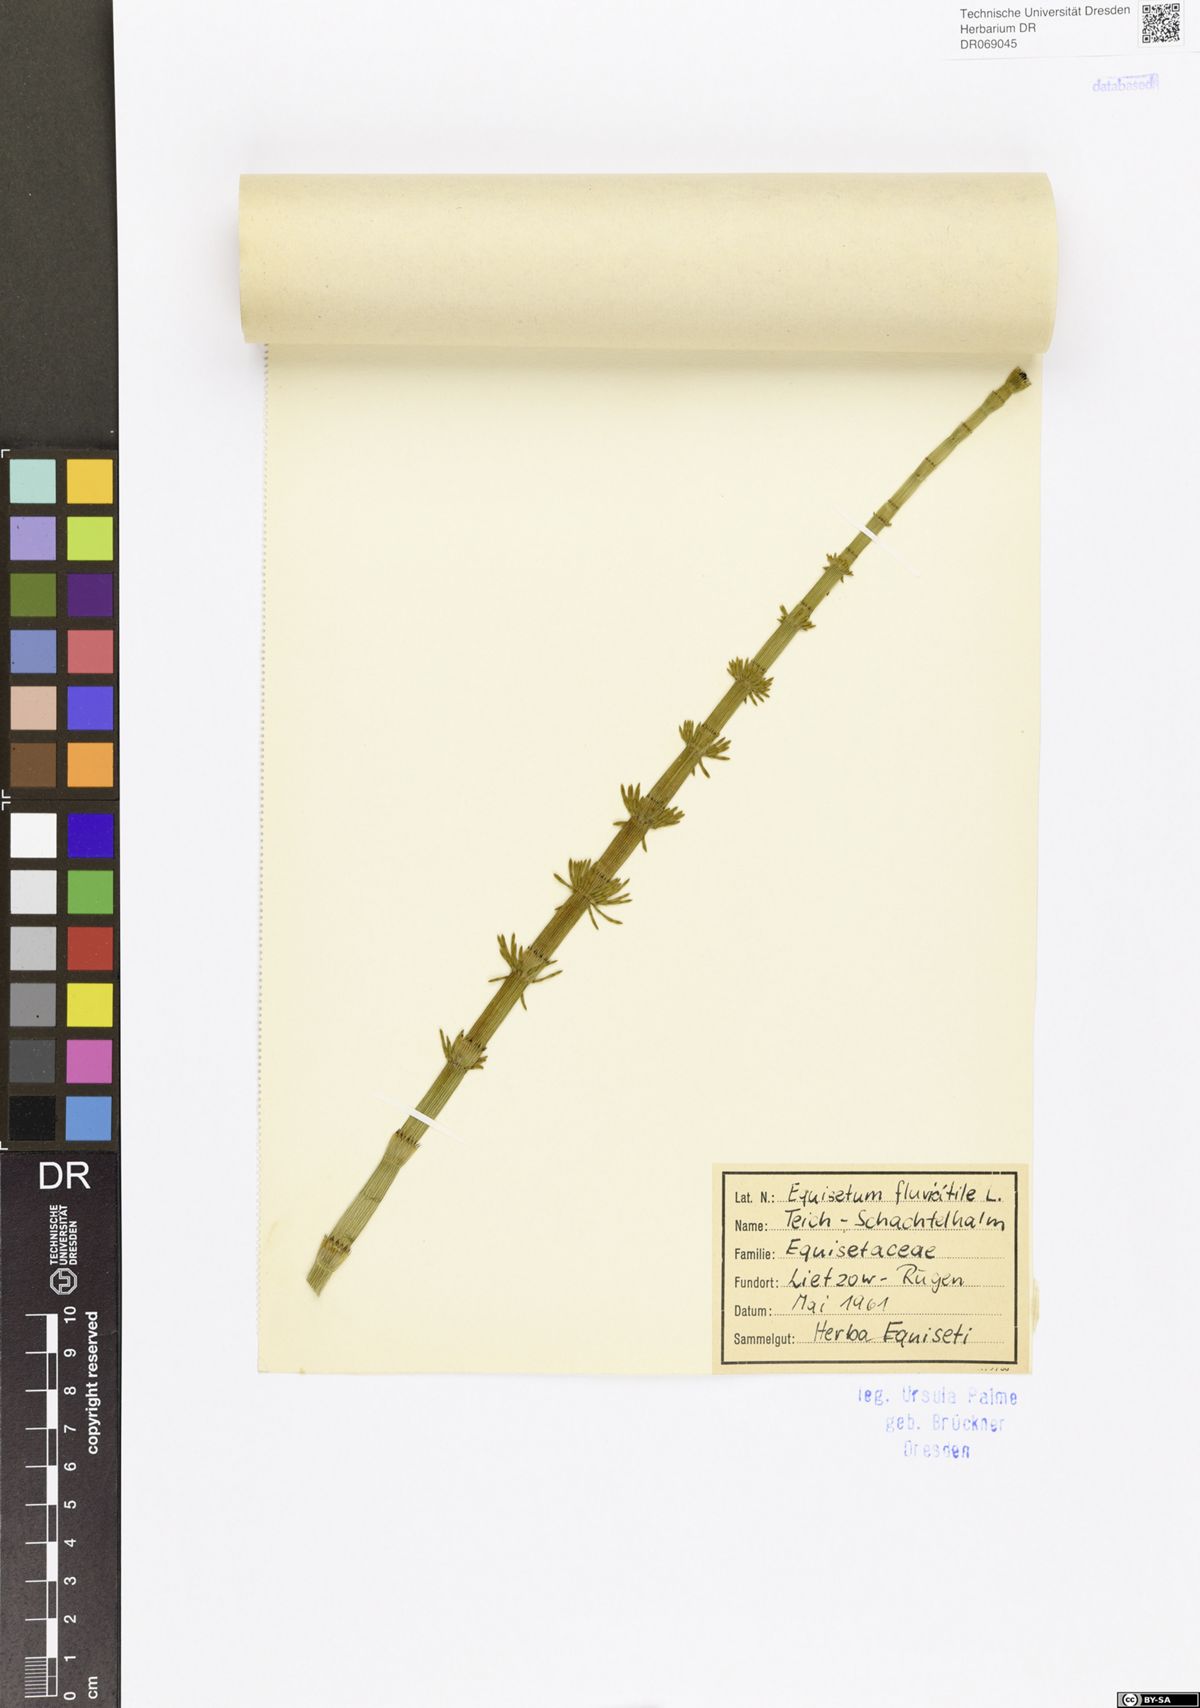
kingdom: Plantae
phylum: Tracheophyta
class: Polypodiopsida
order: Equisetales
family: Equisetaceae
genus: Equisetum
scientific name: Equisetum fluviatile
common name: Water horsetail
